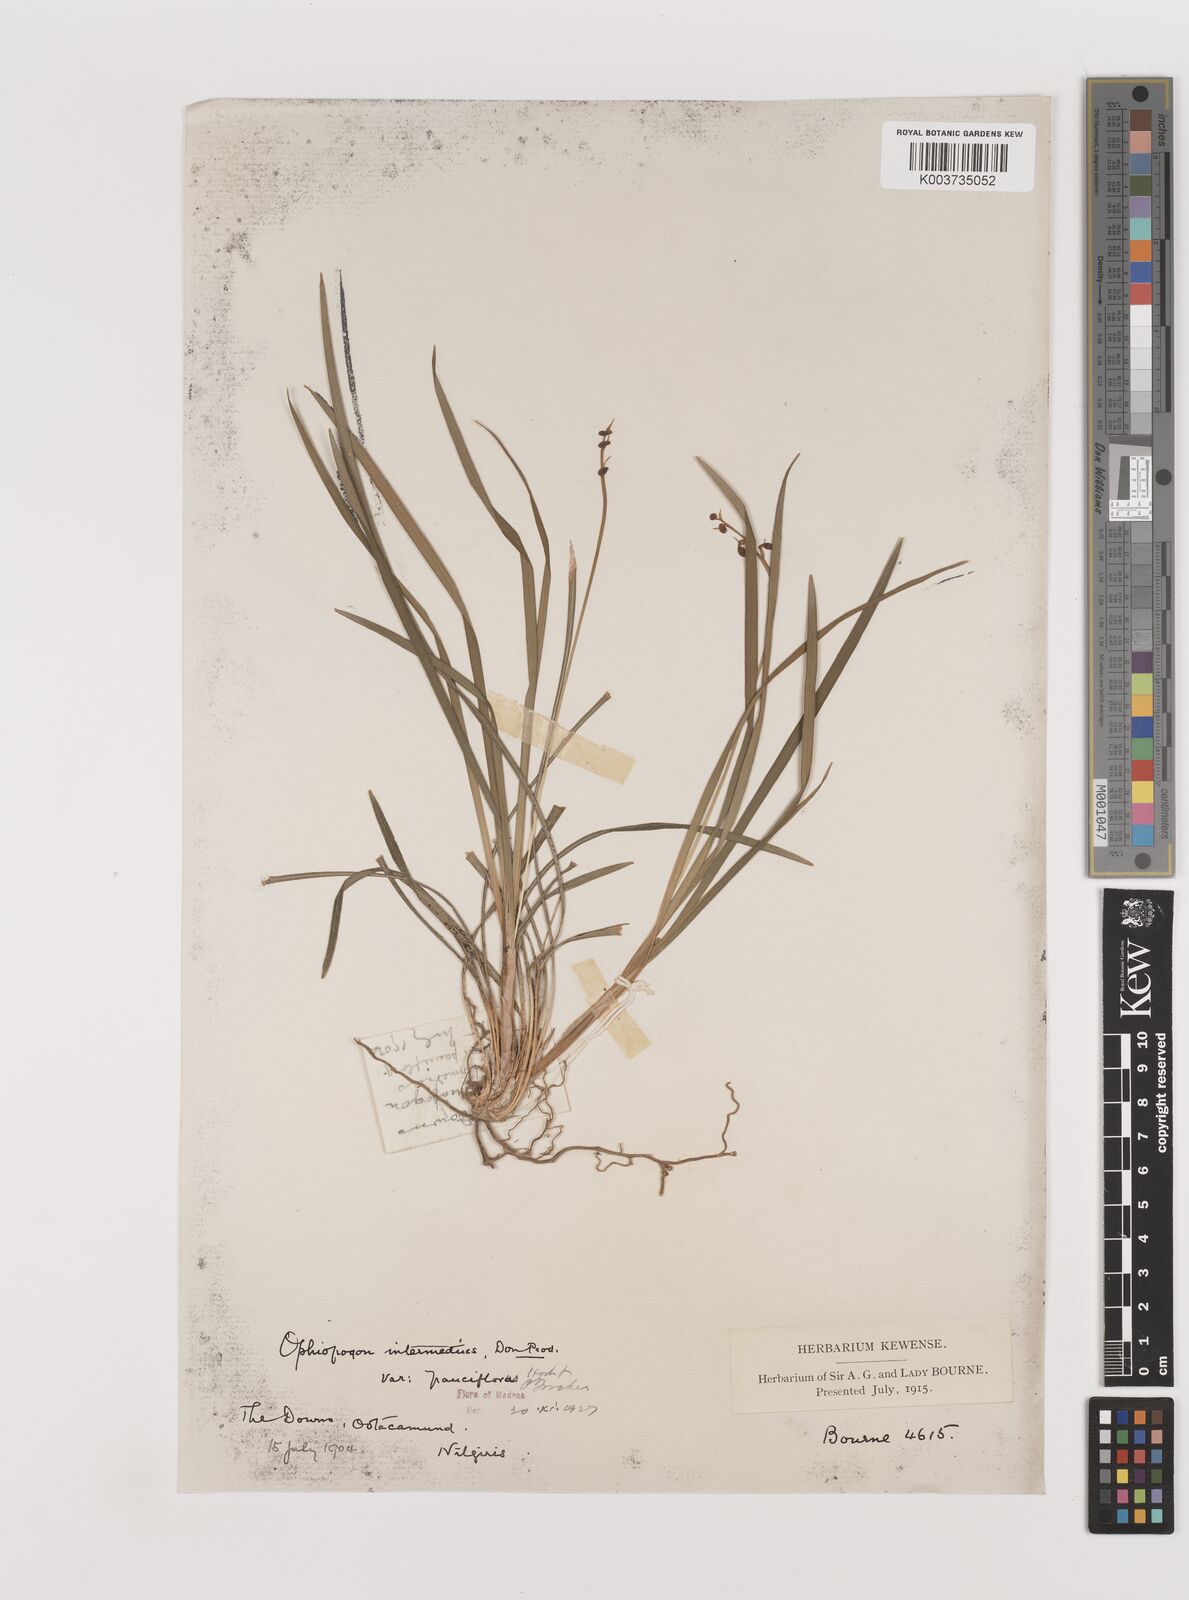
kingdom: Plantae
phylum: Tracheophyta
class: Liliopsida
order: Asparagales
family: Asparagaceae
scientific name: Asparagaceae
